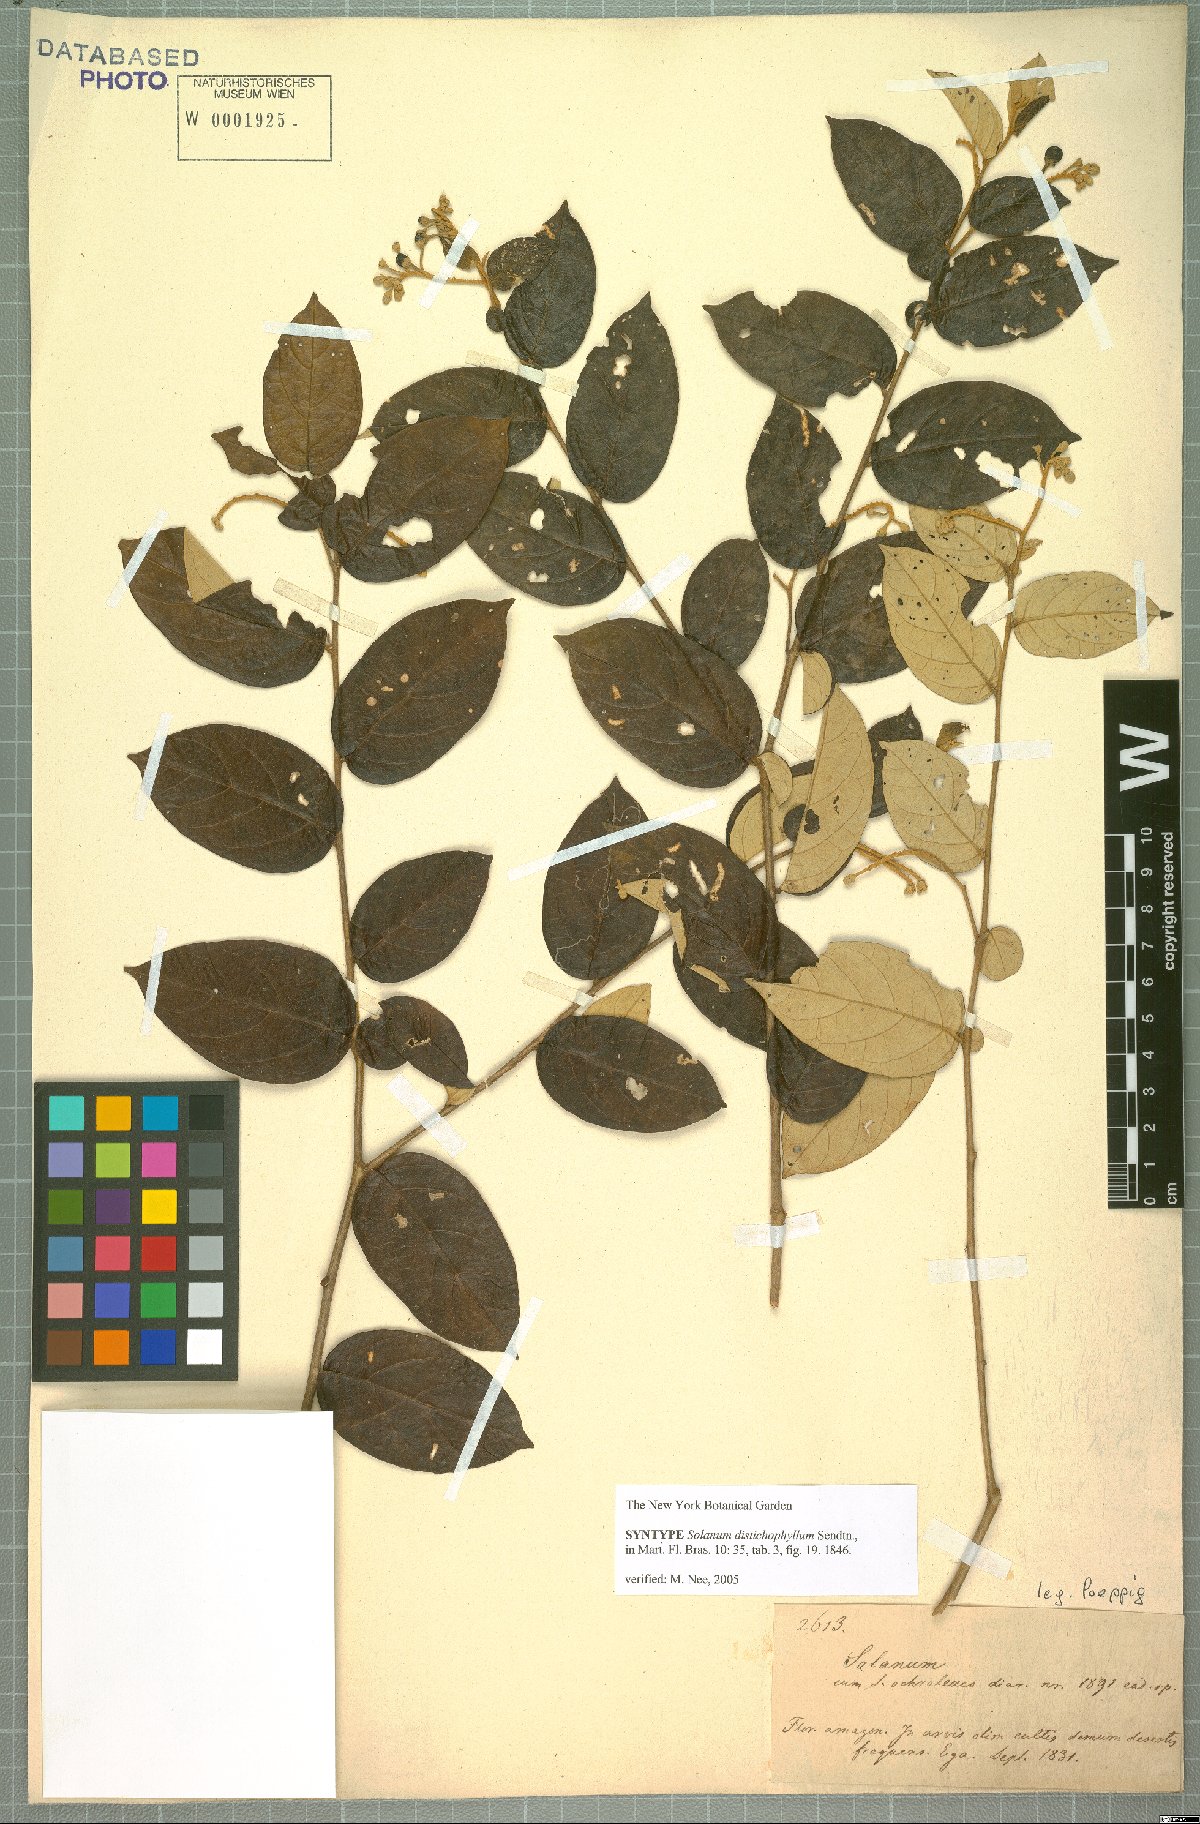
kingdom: Plantae
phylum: Tracheophyta
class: Magnoliopsida
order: Solanales
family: Solanaceae
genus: Solanum
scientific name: Solanum distichophyllum
